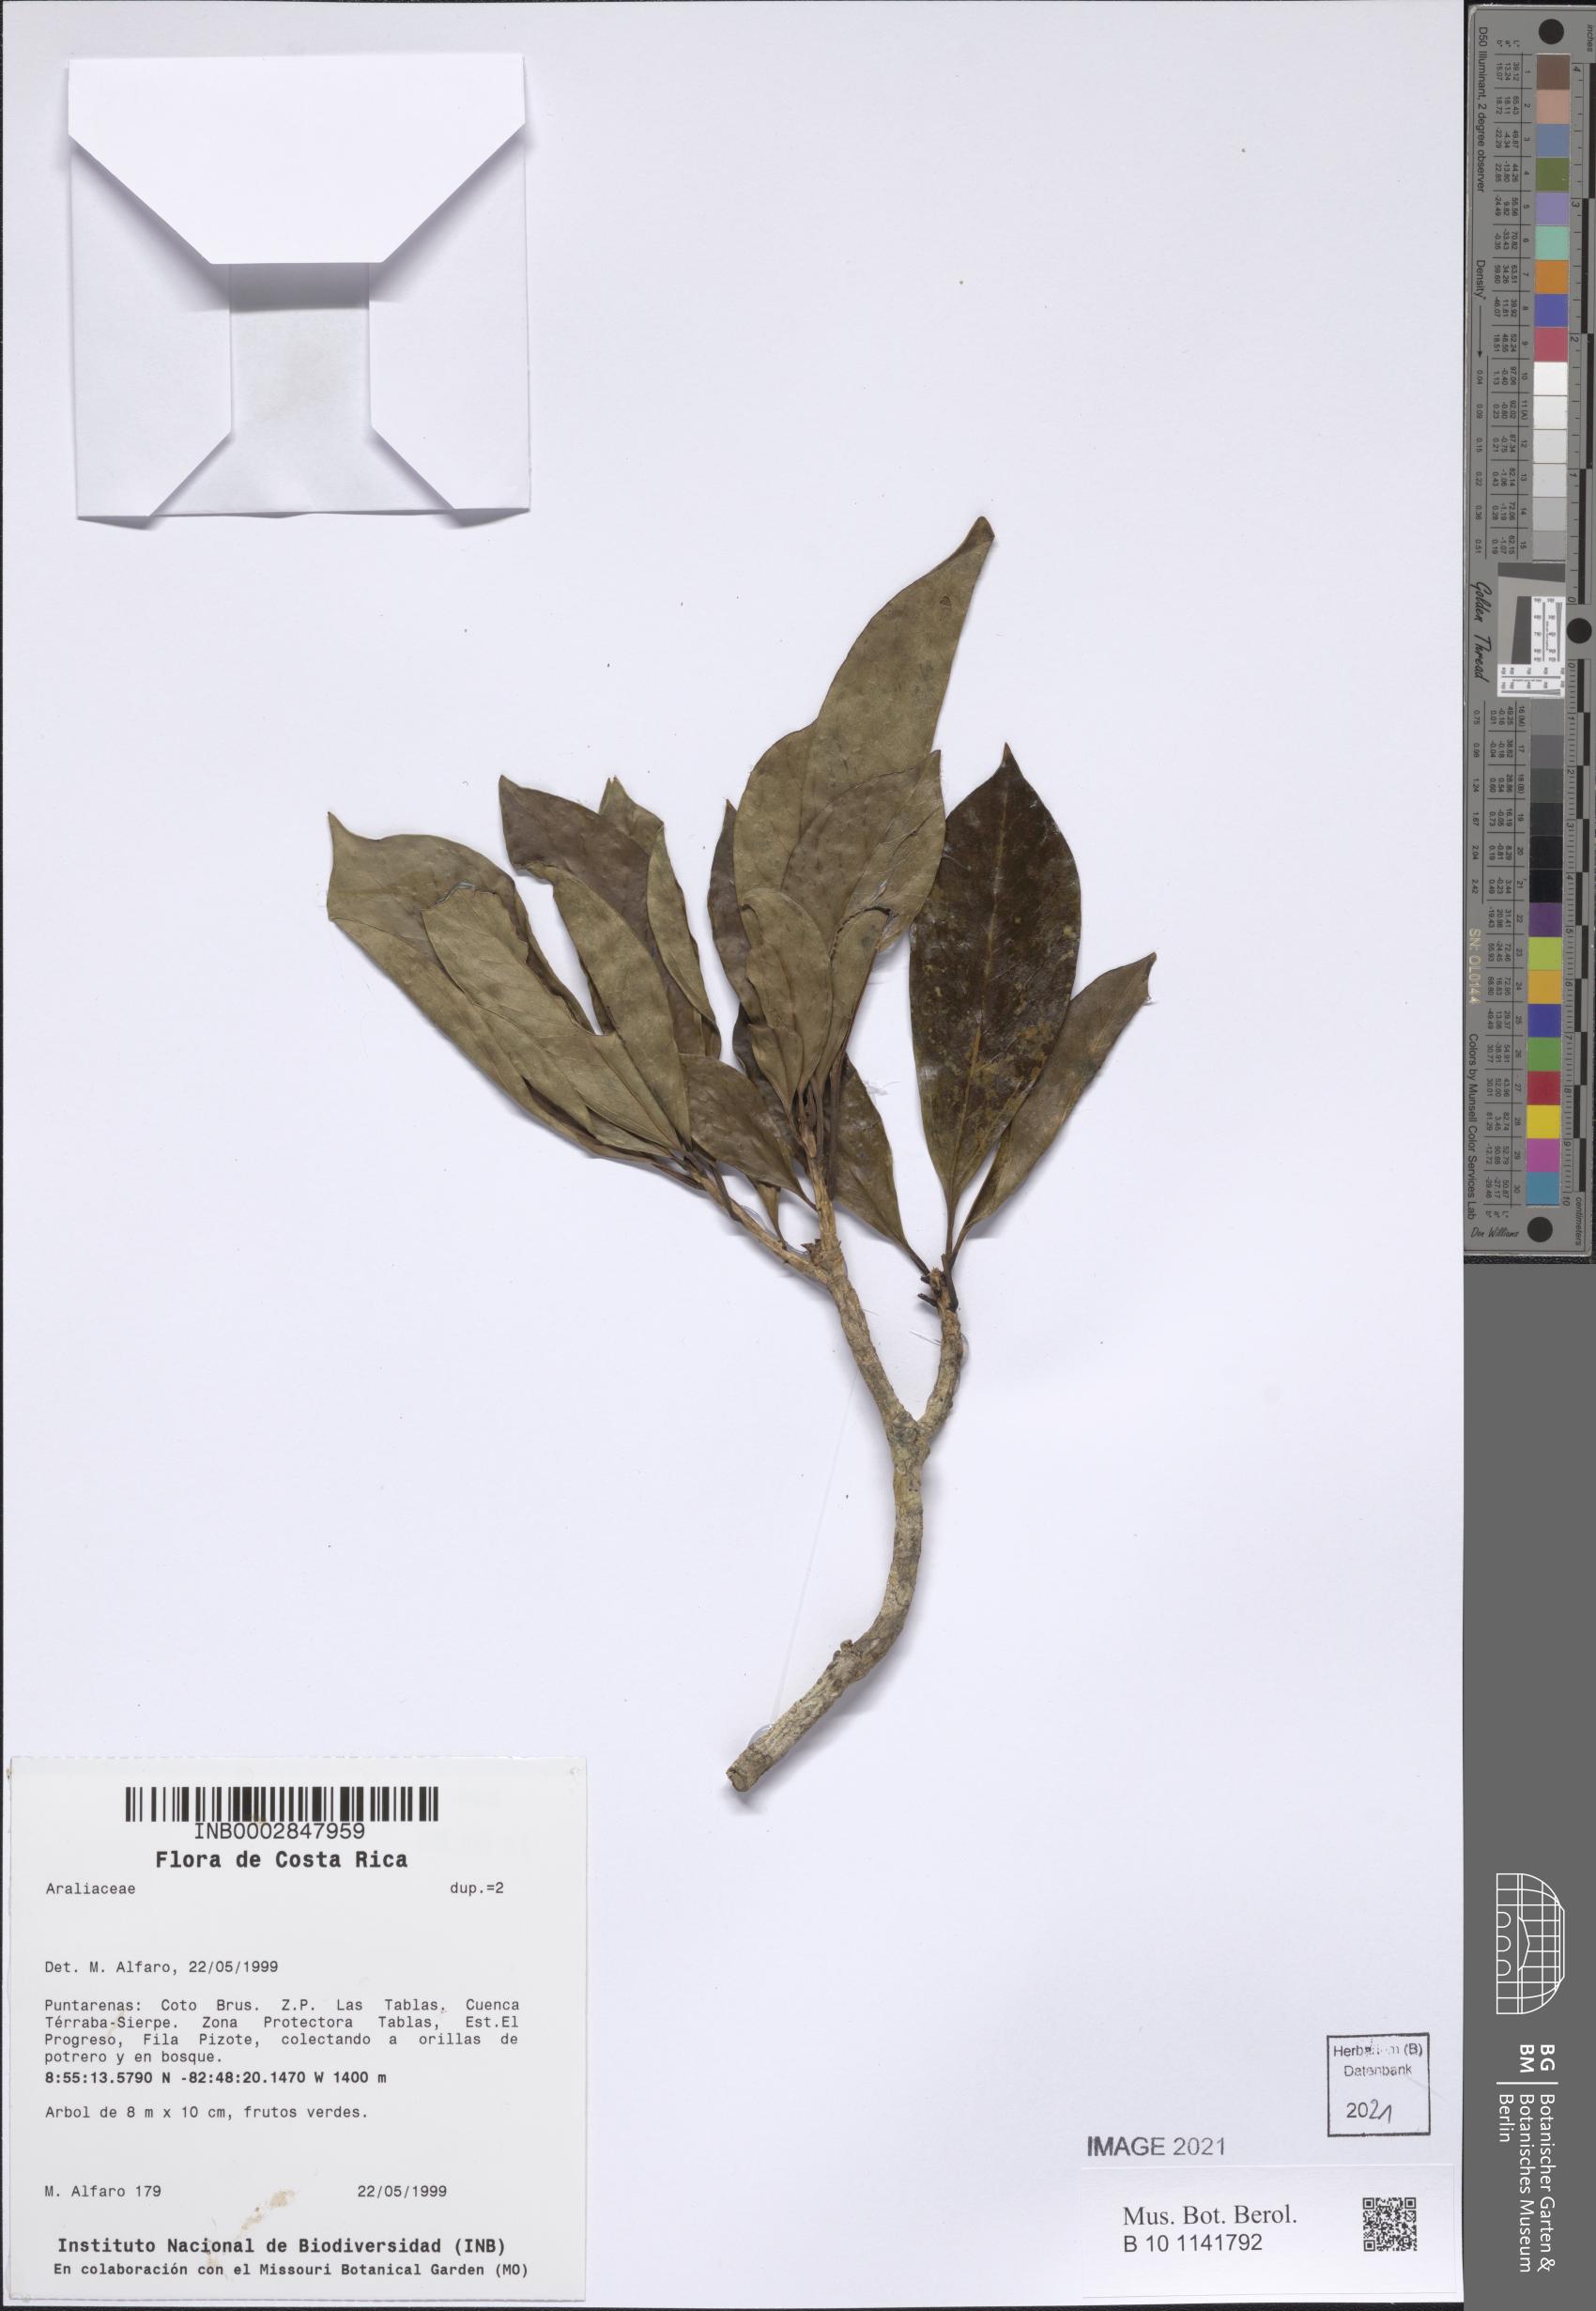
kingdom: Plantae
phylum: Tracheophyta
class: Magnoliopsida
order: Apiales
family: Araliaceae
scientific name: Araliaceae
